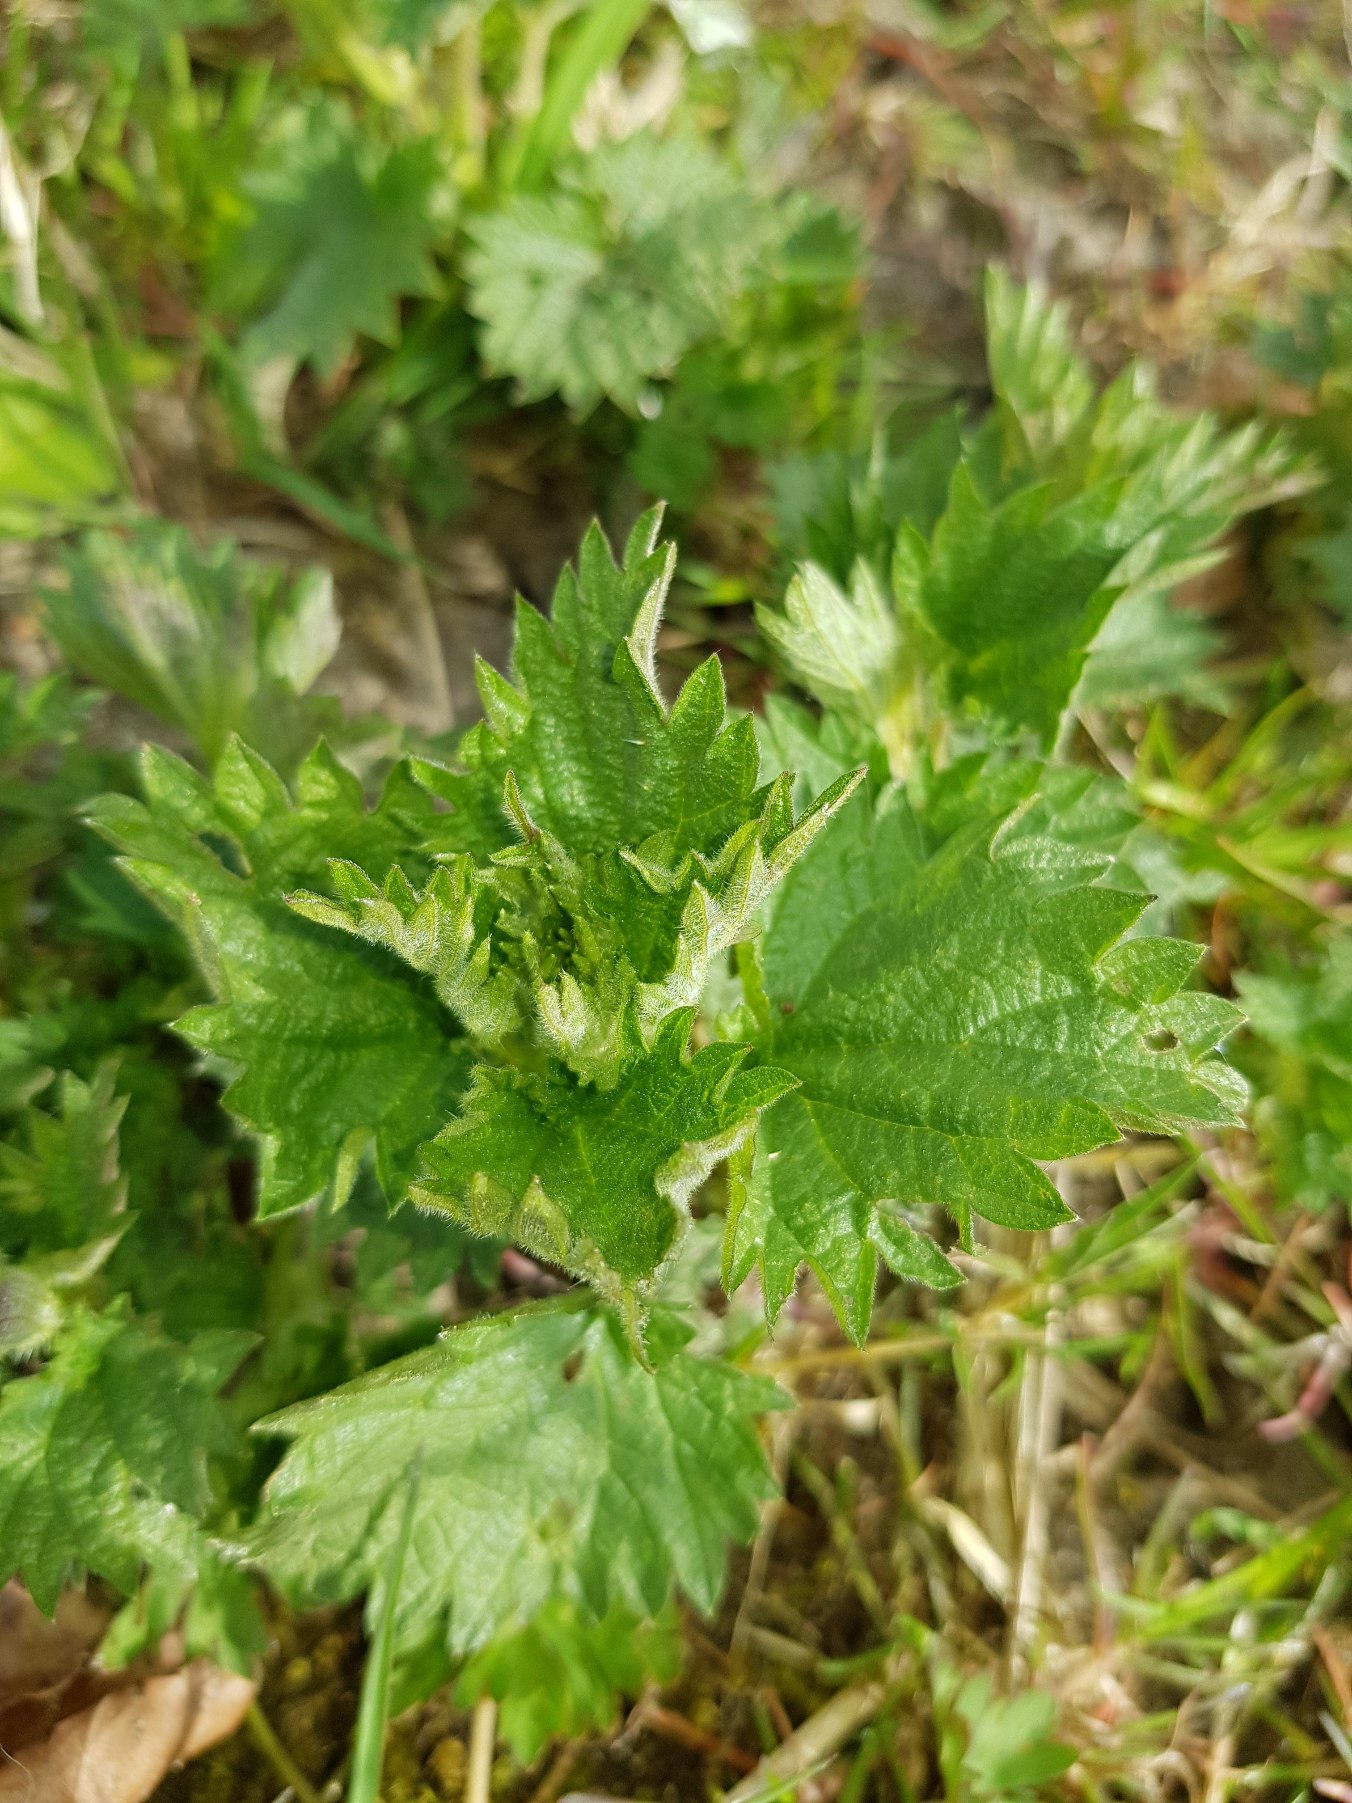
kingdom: Plantae
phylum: Tracheophyta
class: Magnoliopsida
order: Rosales
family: Urticaceae
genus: Urtica
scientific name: Urtica dioica
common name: Stor nælde
